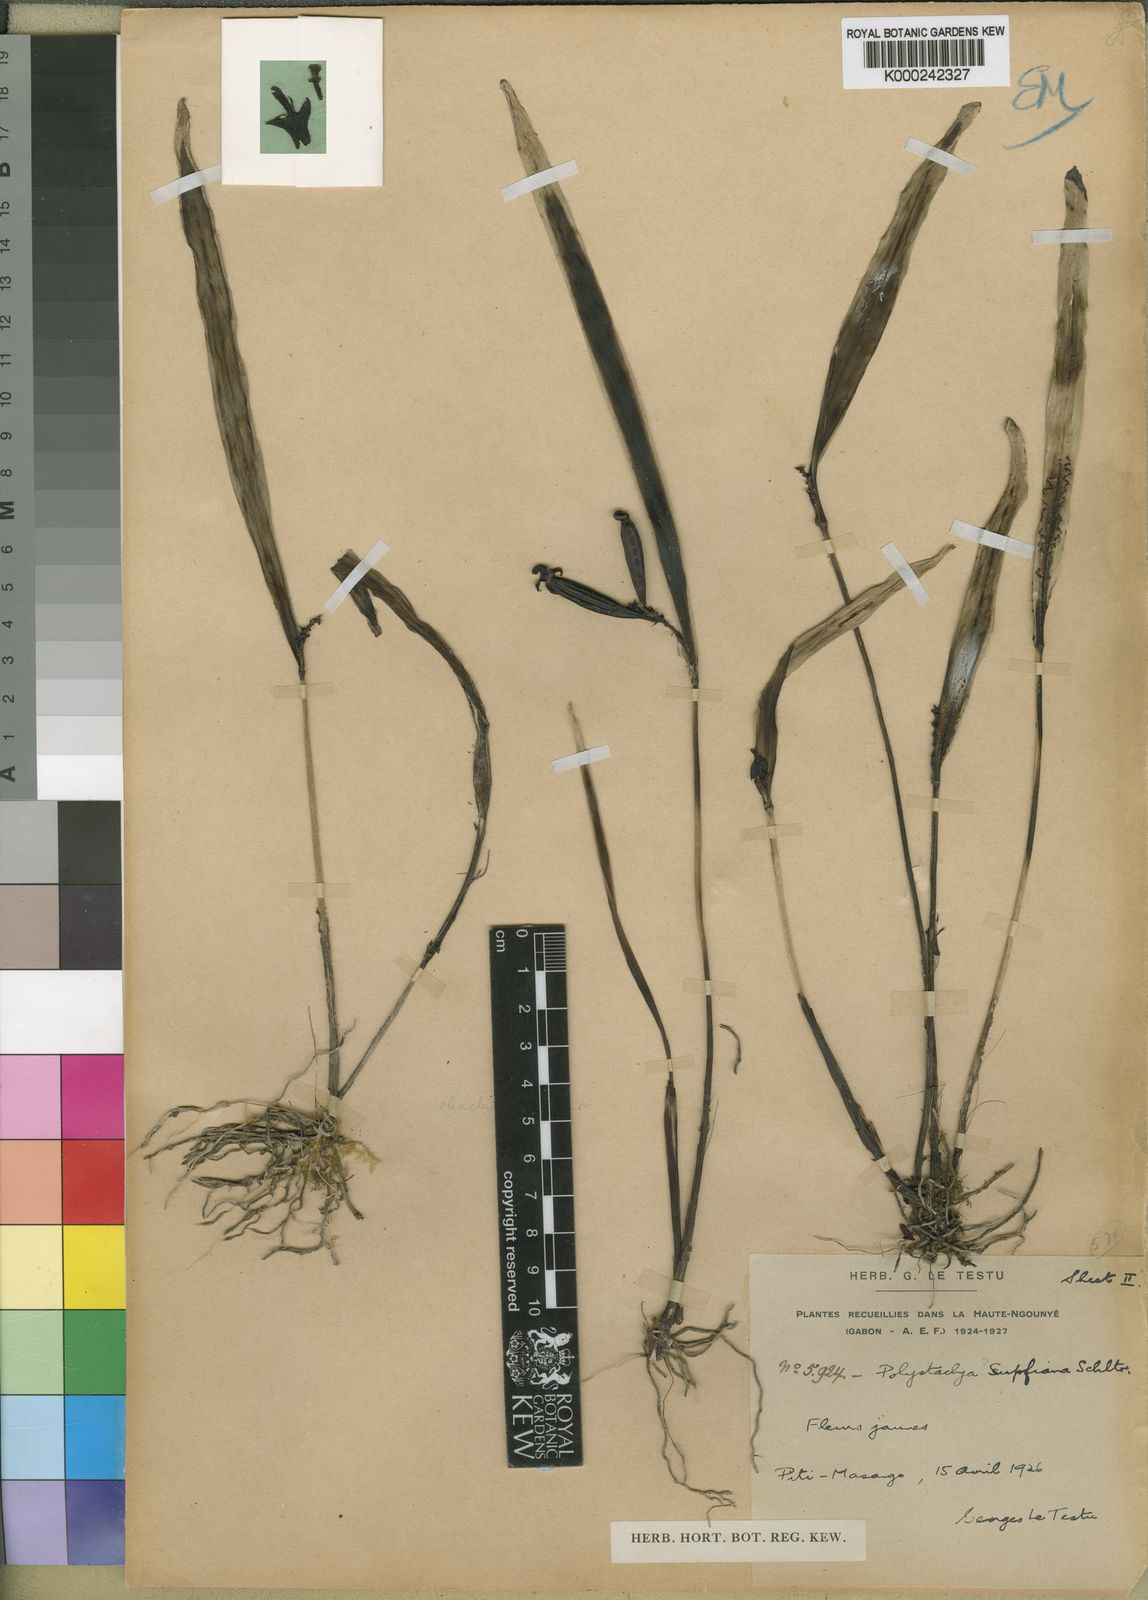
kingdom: Plantae
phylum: Tracheophyta
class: Liliopsida
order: Asparagales
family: Orchidaceae
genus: Polystachya
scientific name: Polystachya kubalae
